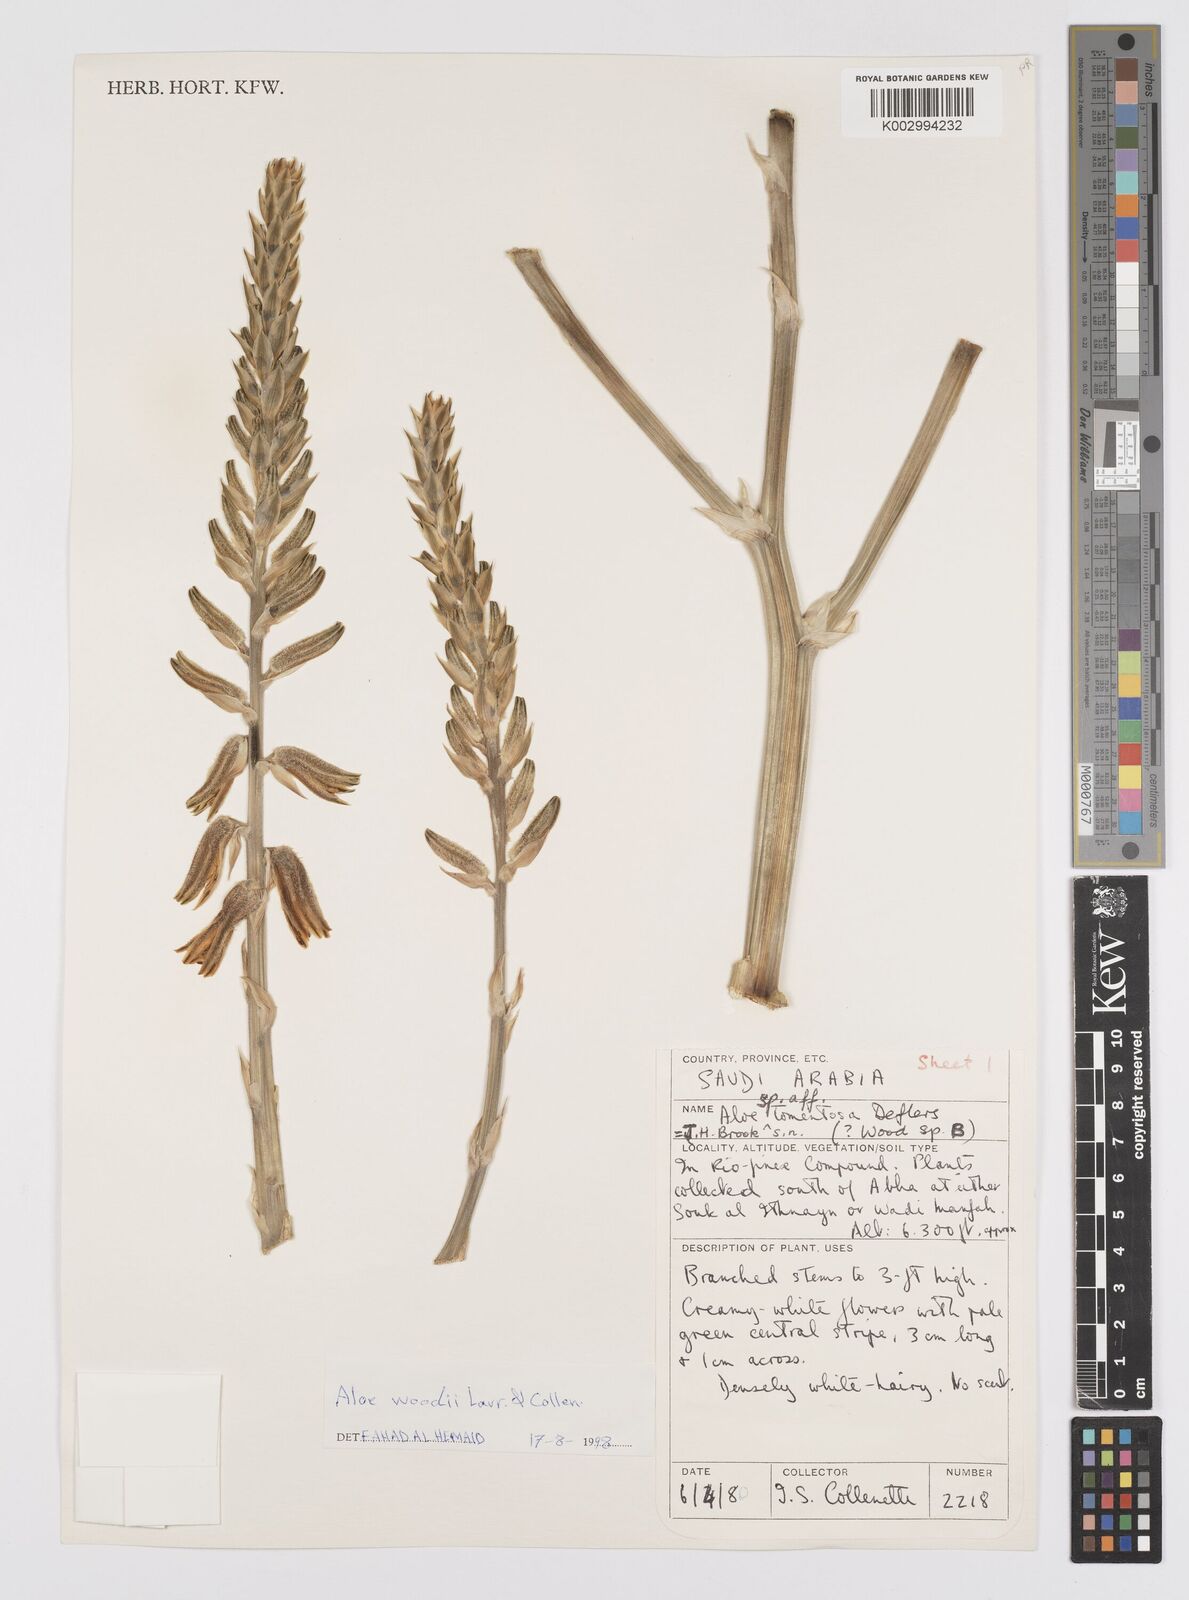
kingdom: Plantae
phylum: Tracheophyta
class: Liliopsida
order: Asparagales
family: Asphodelaceae
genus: Aloe
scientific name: Aloe woodii
